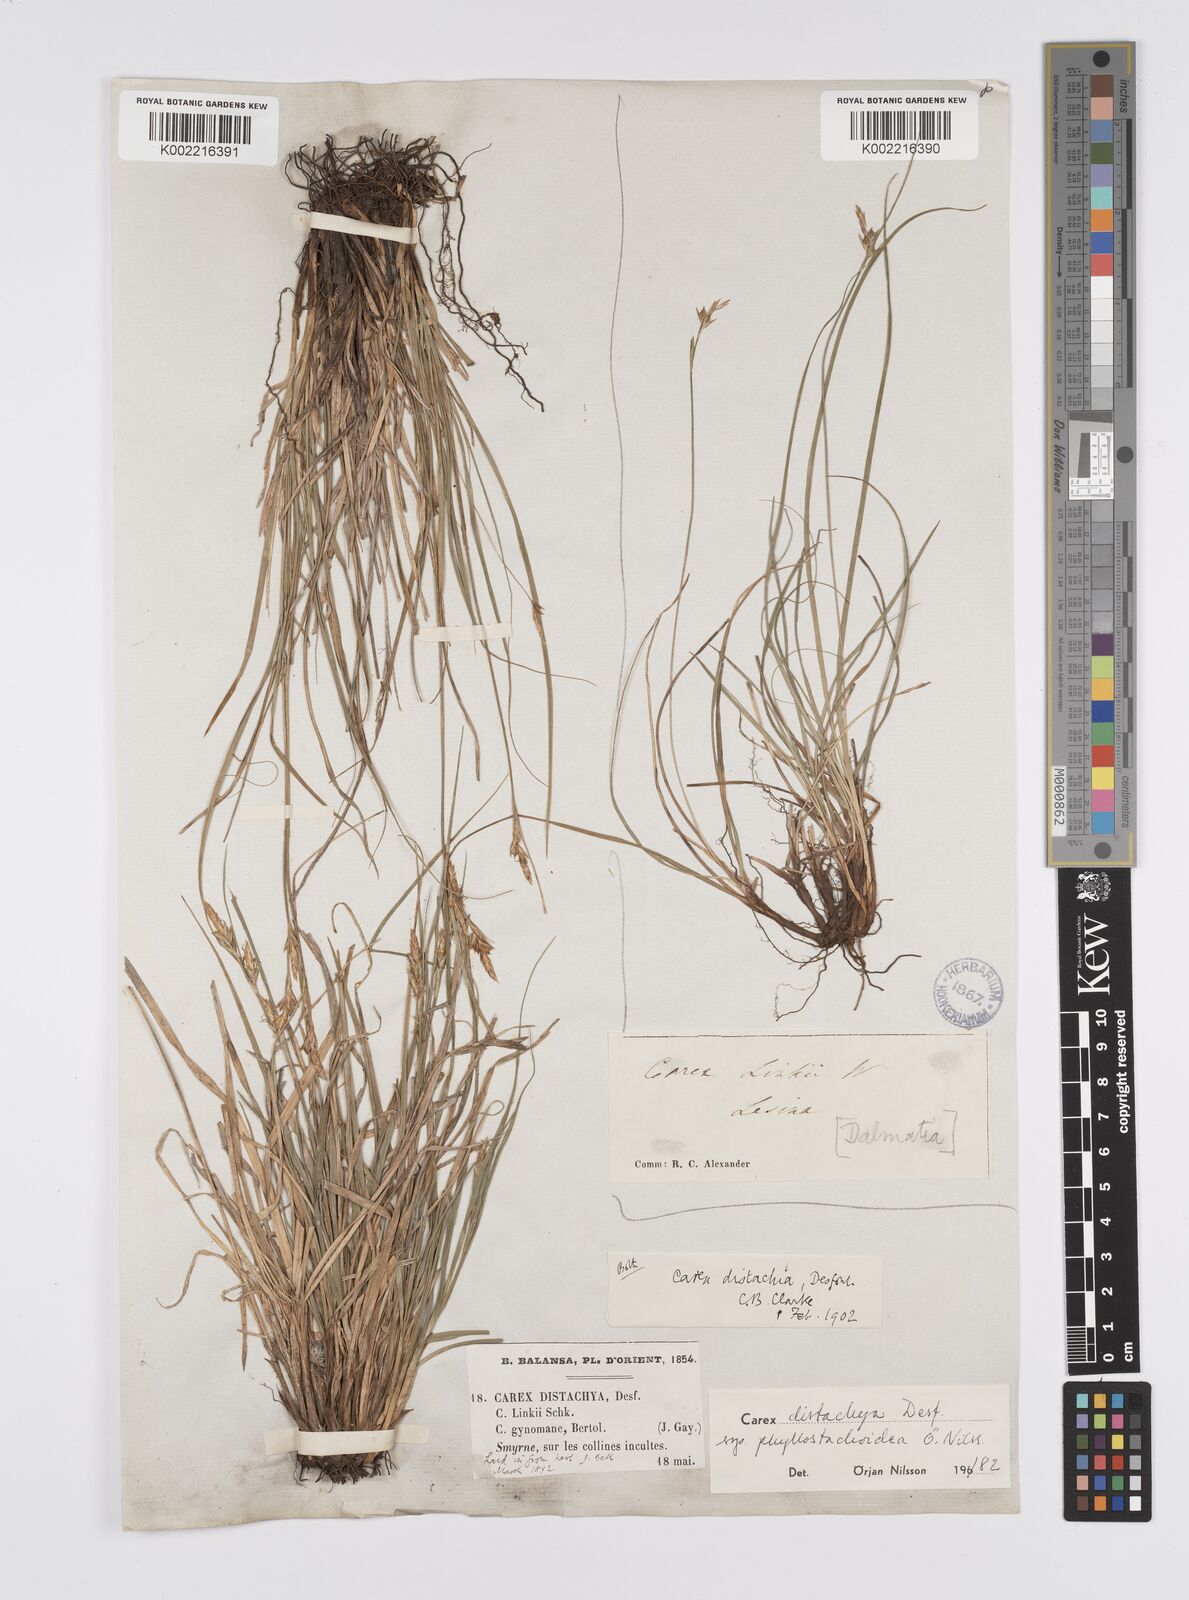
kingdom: Plantae
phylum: Tracheophyta
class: Liliopsida
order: Poales
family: Cyperaceae
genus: Carex
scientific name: Carex distachya
